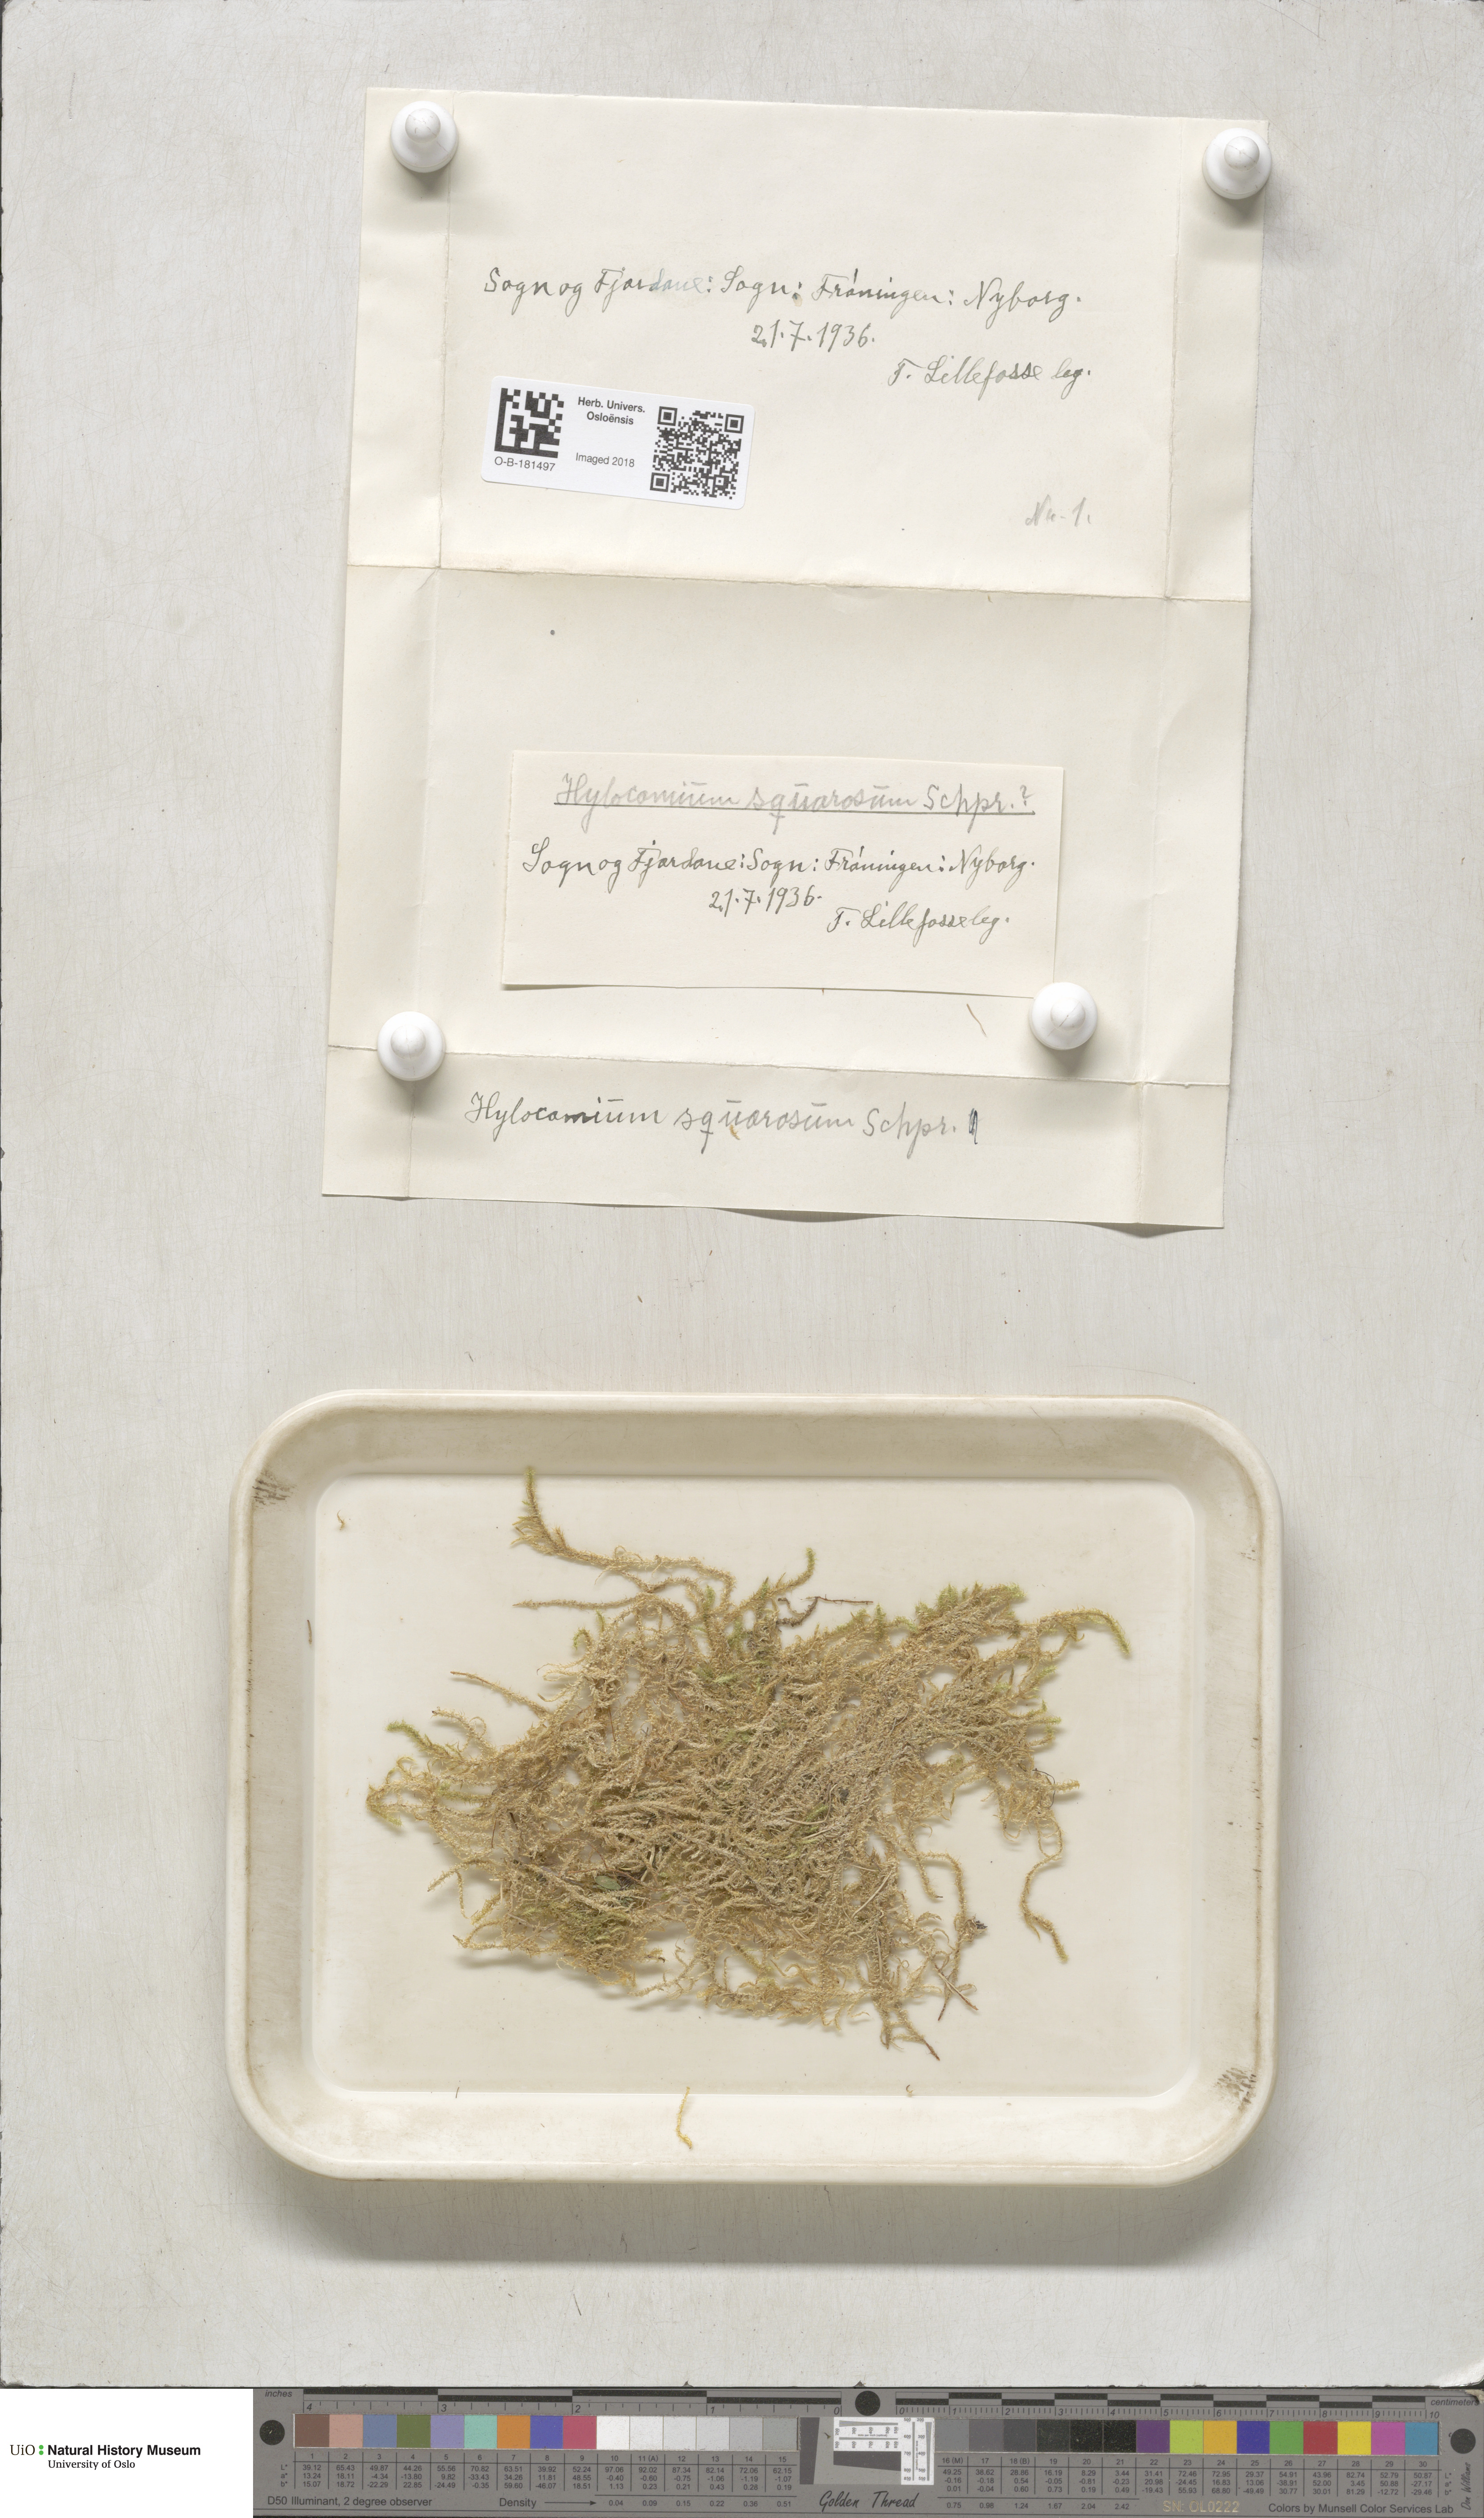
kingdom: Plantae
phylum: Bryophyta
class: Bryopsida
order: Hypnales
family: Hylocomiaceae
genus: Rhytidiadelphus
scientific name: Rhytidiadelphus squarrosus
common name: Springy turf-moss
